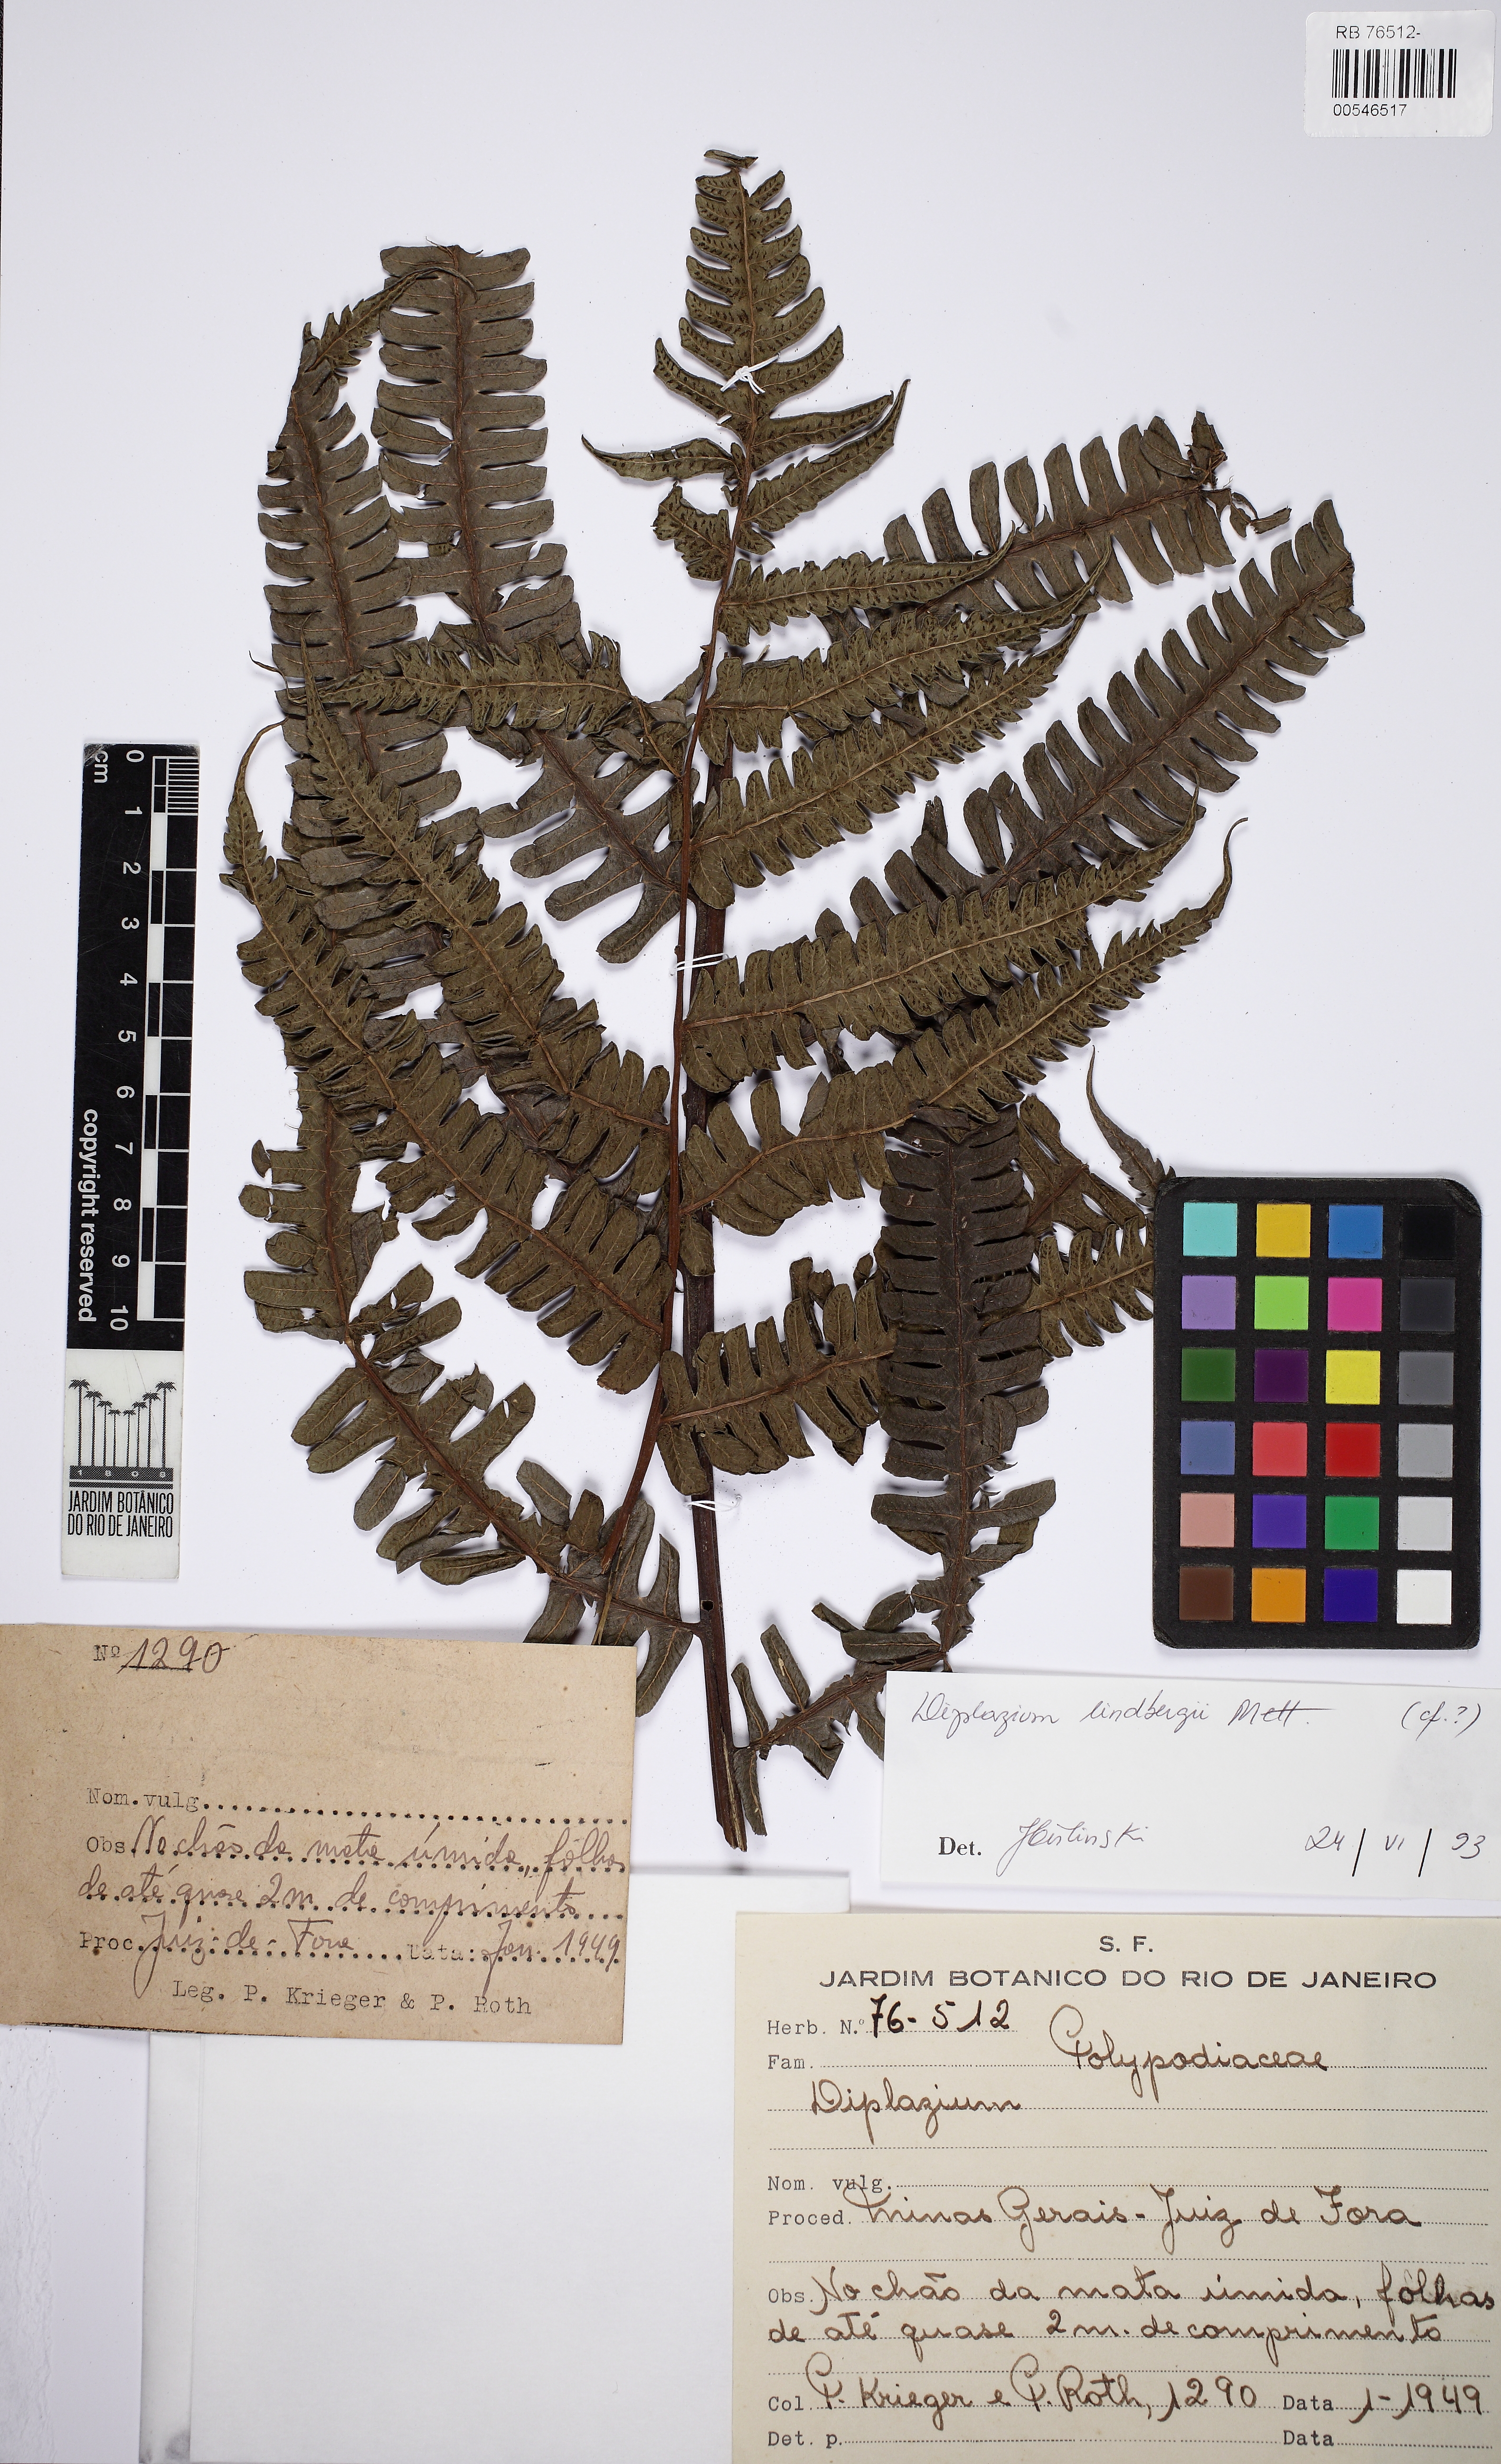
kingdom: Plantae
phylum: Tracheophyta
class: Polypodiopsida
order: Polypodiales
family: Athyriaceae
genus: Diplazium
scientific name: Diplazium lindbergii
